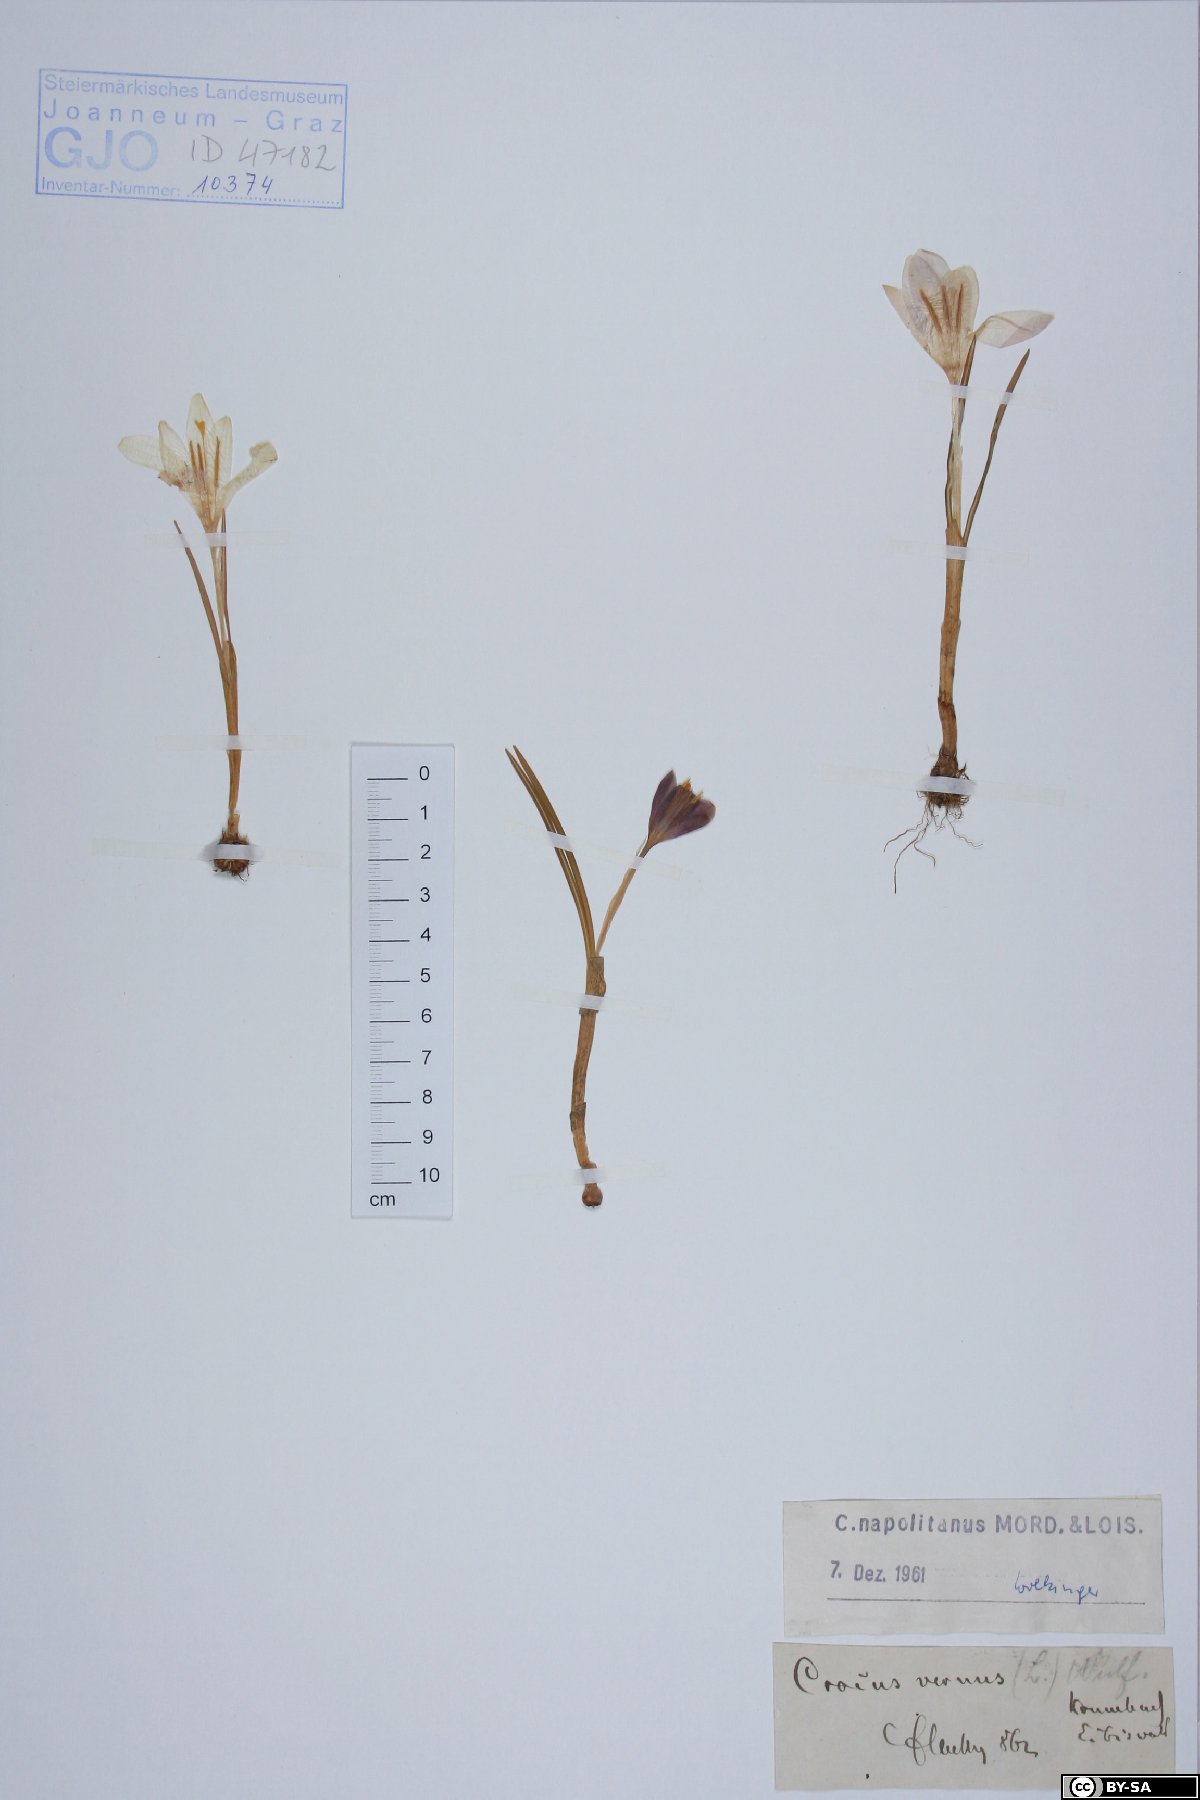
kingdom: Plantae
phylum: Tracheophyta
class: Liliopsida
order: Asparagales
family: Iridaceae
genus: Crocus
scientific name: Crocus vernus
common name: Spring crocus
